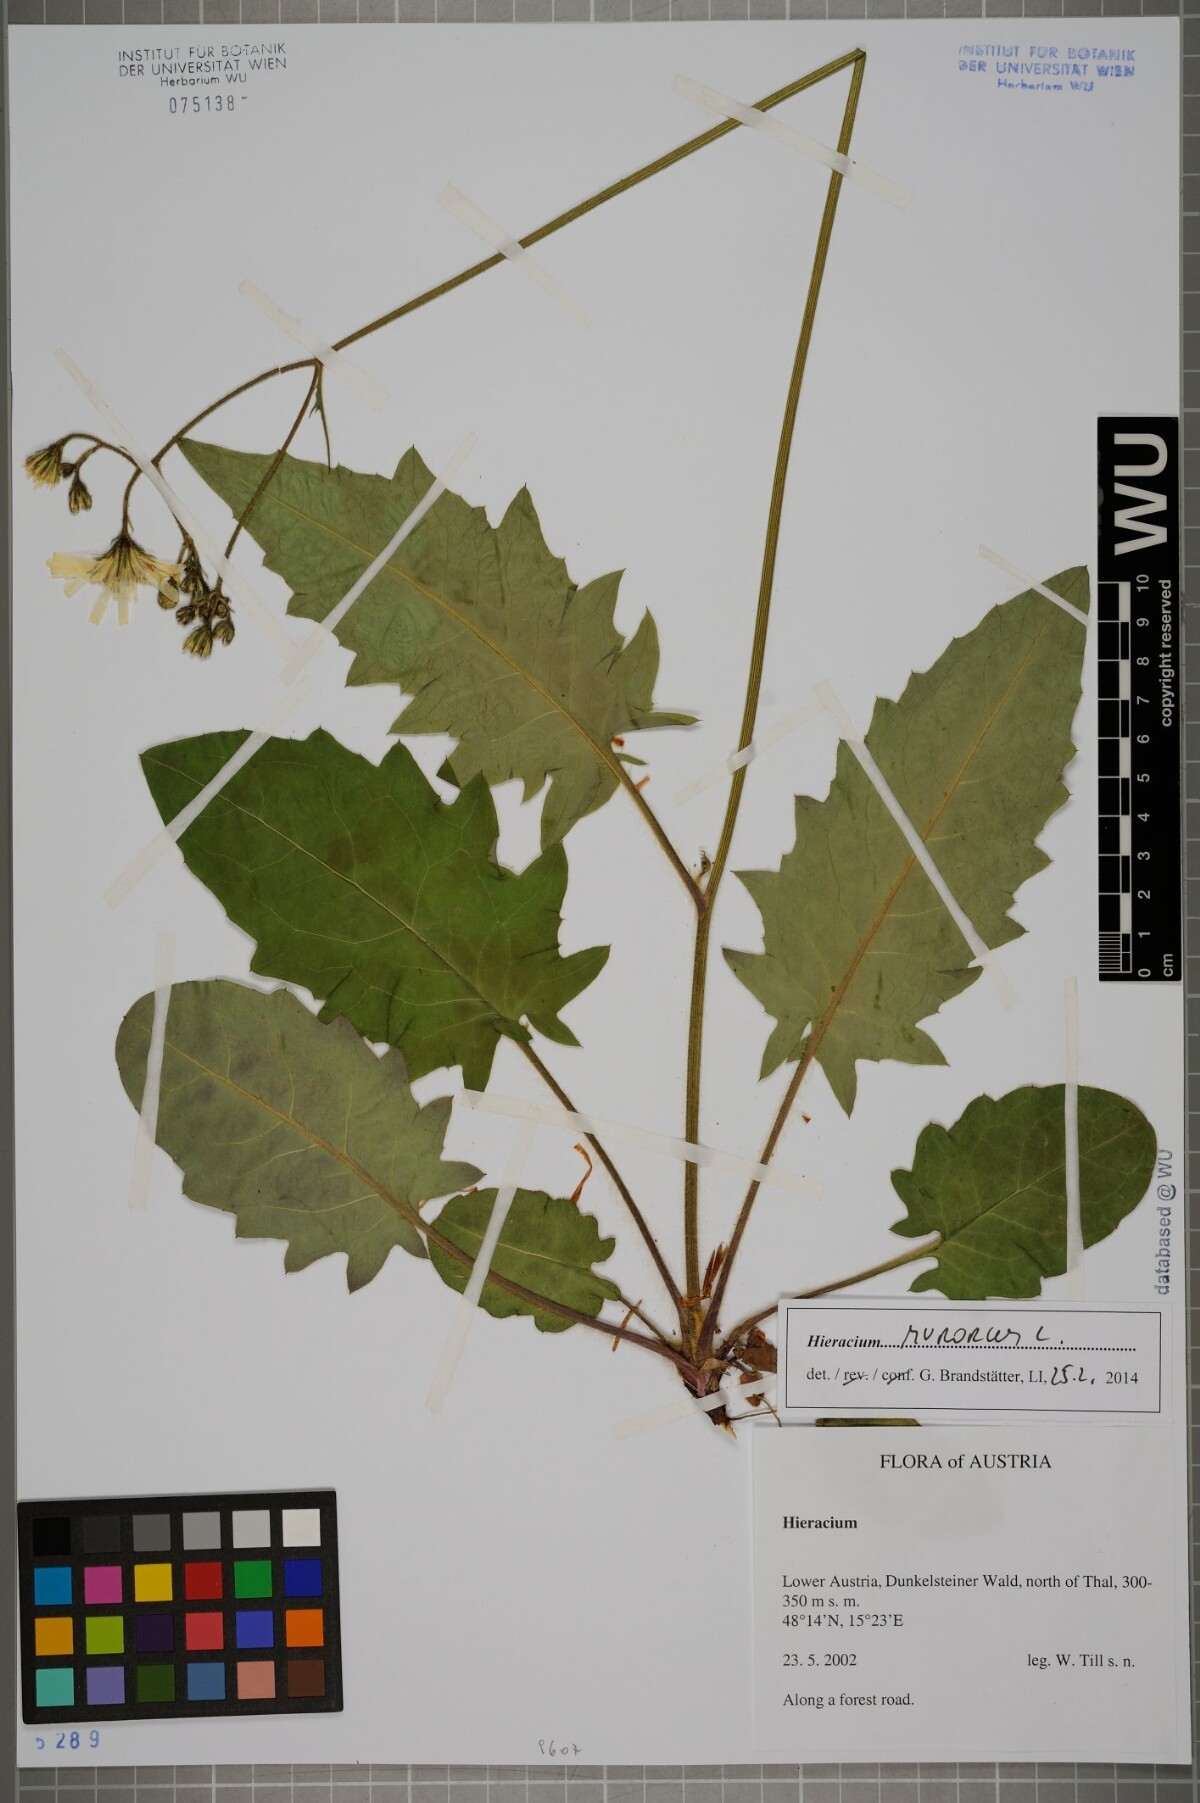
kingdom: Plantae
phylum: Tracheophyta
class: Magnoliopsida
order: Asterales
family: Asteraceae
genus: Hieracium
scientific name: Hieracium murorum
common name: Wall hawkweed
